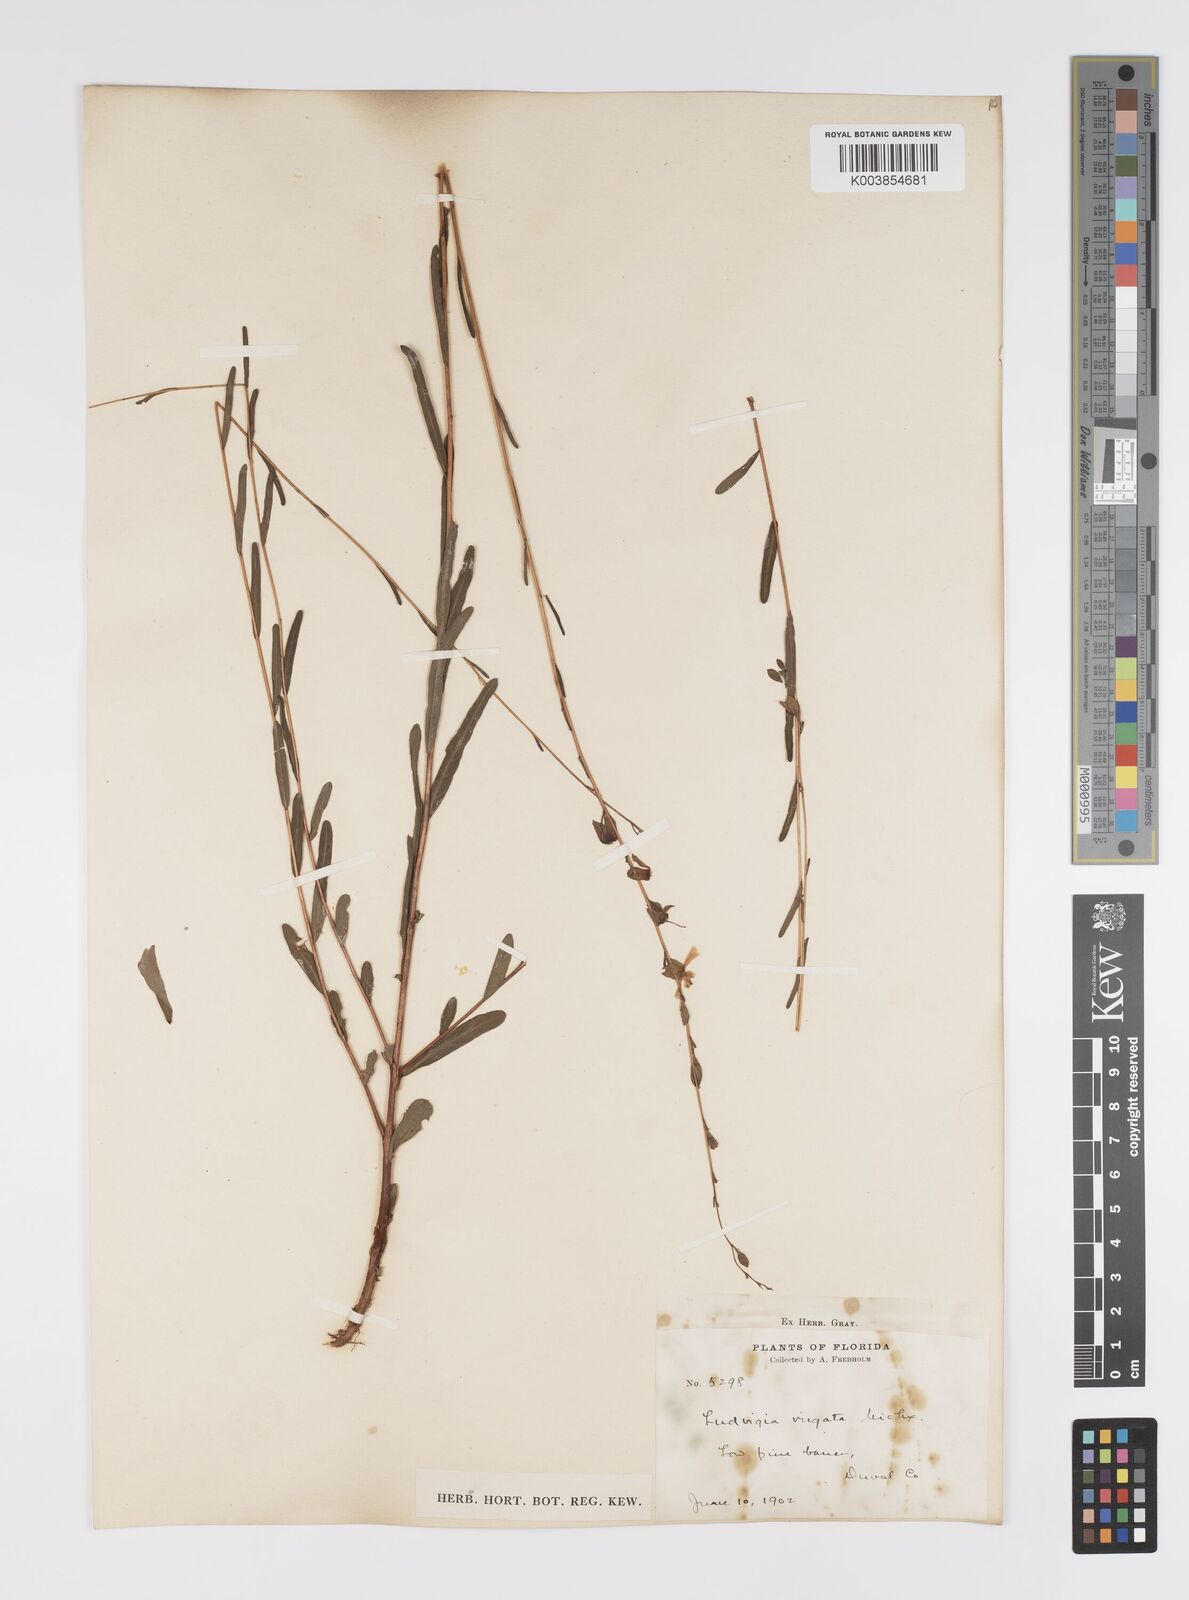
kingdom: Plantae
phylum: Tracheophyta
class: Magnoliopsida
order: Myrtales
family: Onagraceae
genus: Ludwigia
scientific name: Ludwigia virgata
